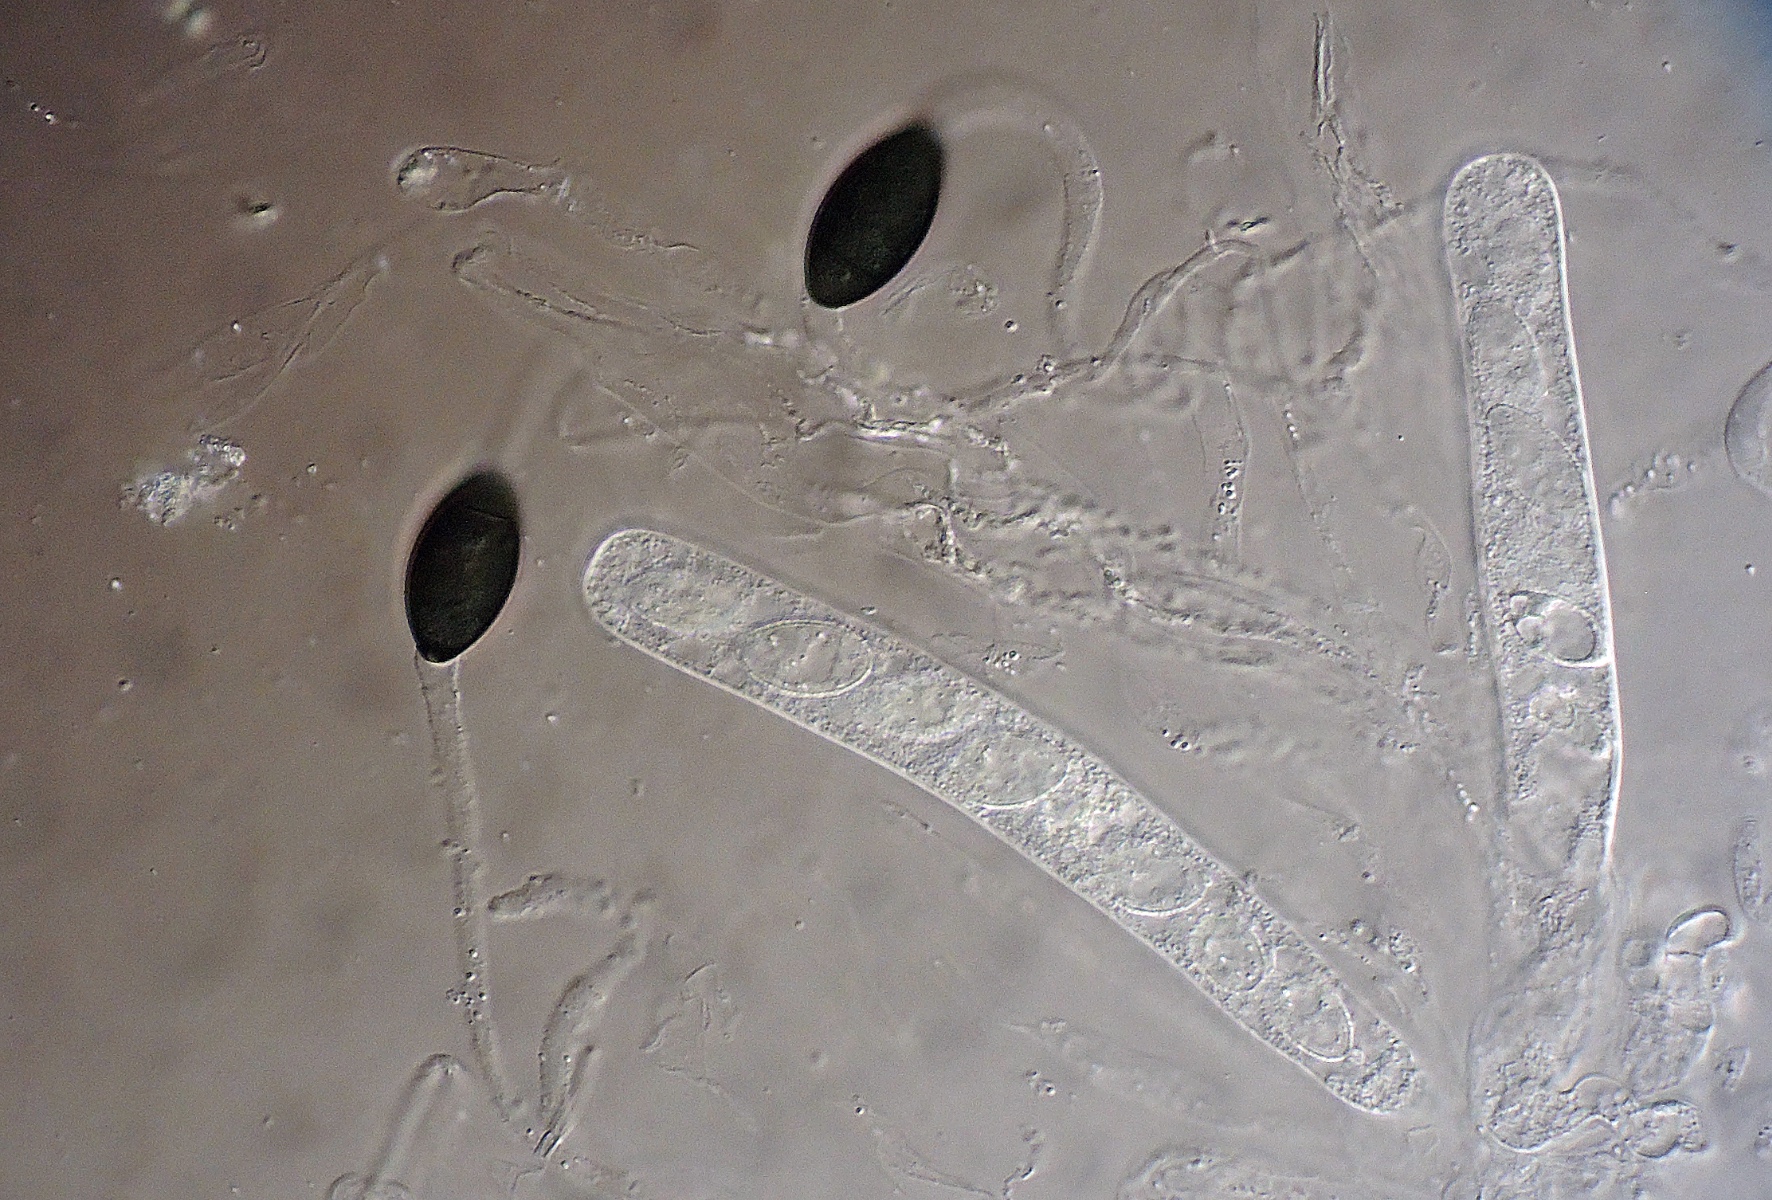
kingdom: Fungi
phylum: Ascomycota
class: Sordariomycetes
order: Sordariales
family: Lasiosphaeriaceae
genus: Arnium
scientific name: Arnium septosporum
